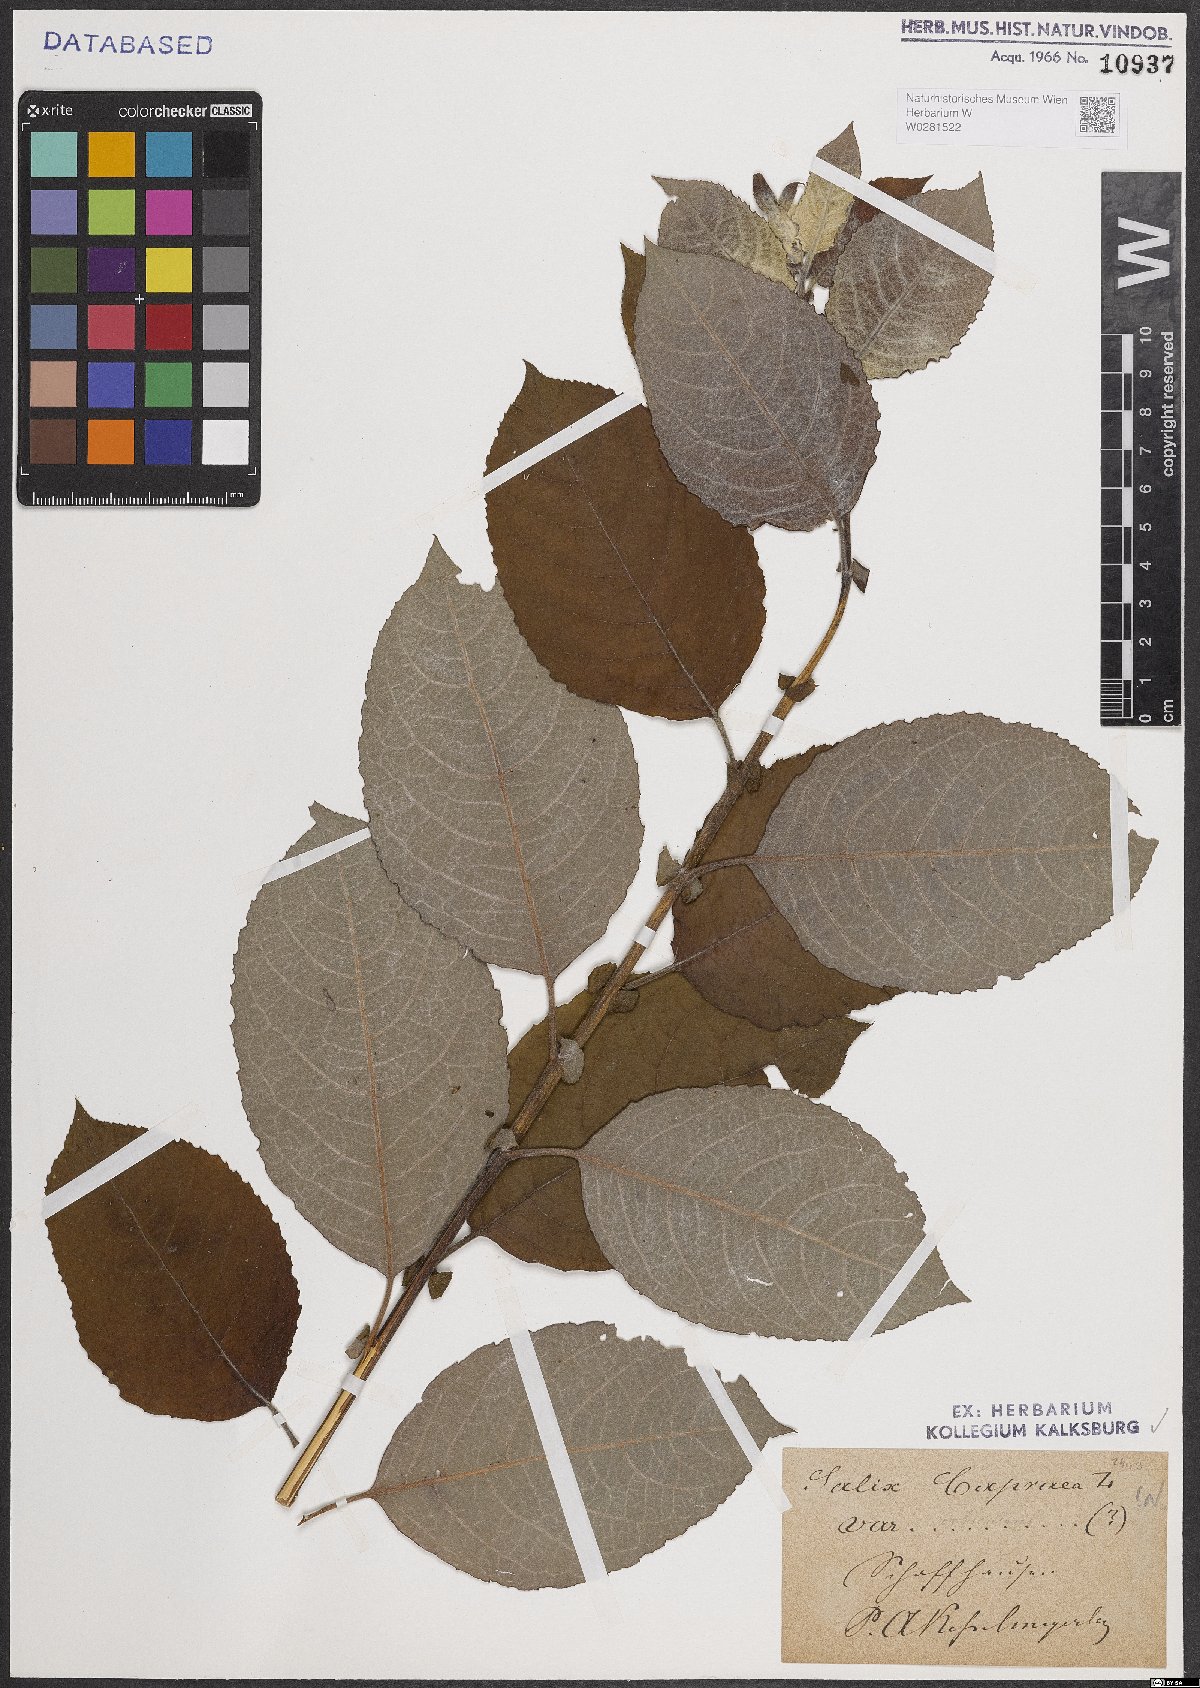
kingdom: Plantae
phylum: Tracheophyta
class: Magnoliopsida
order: Malpighiales
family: Salicaceae
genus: Salix
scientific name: Salix caprea
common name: Goat willow
